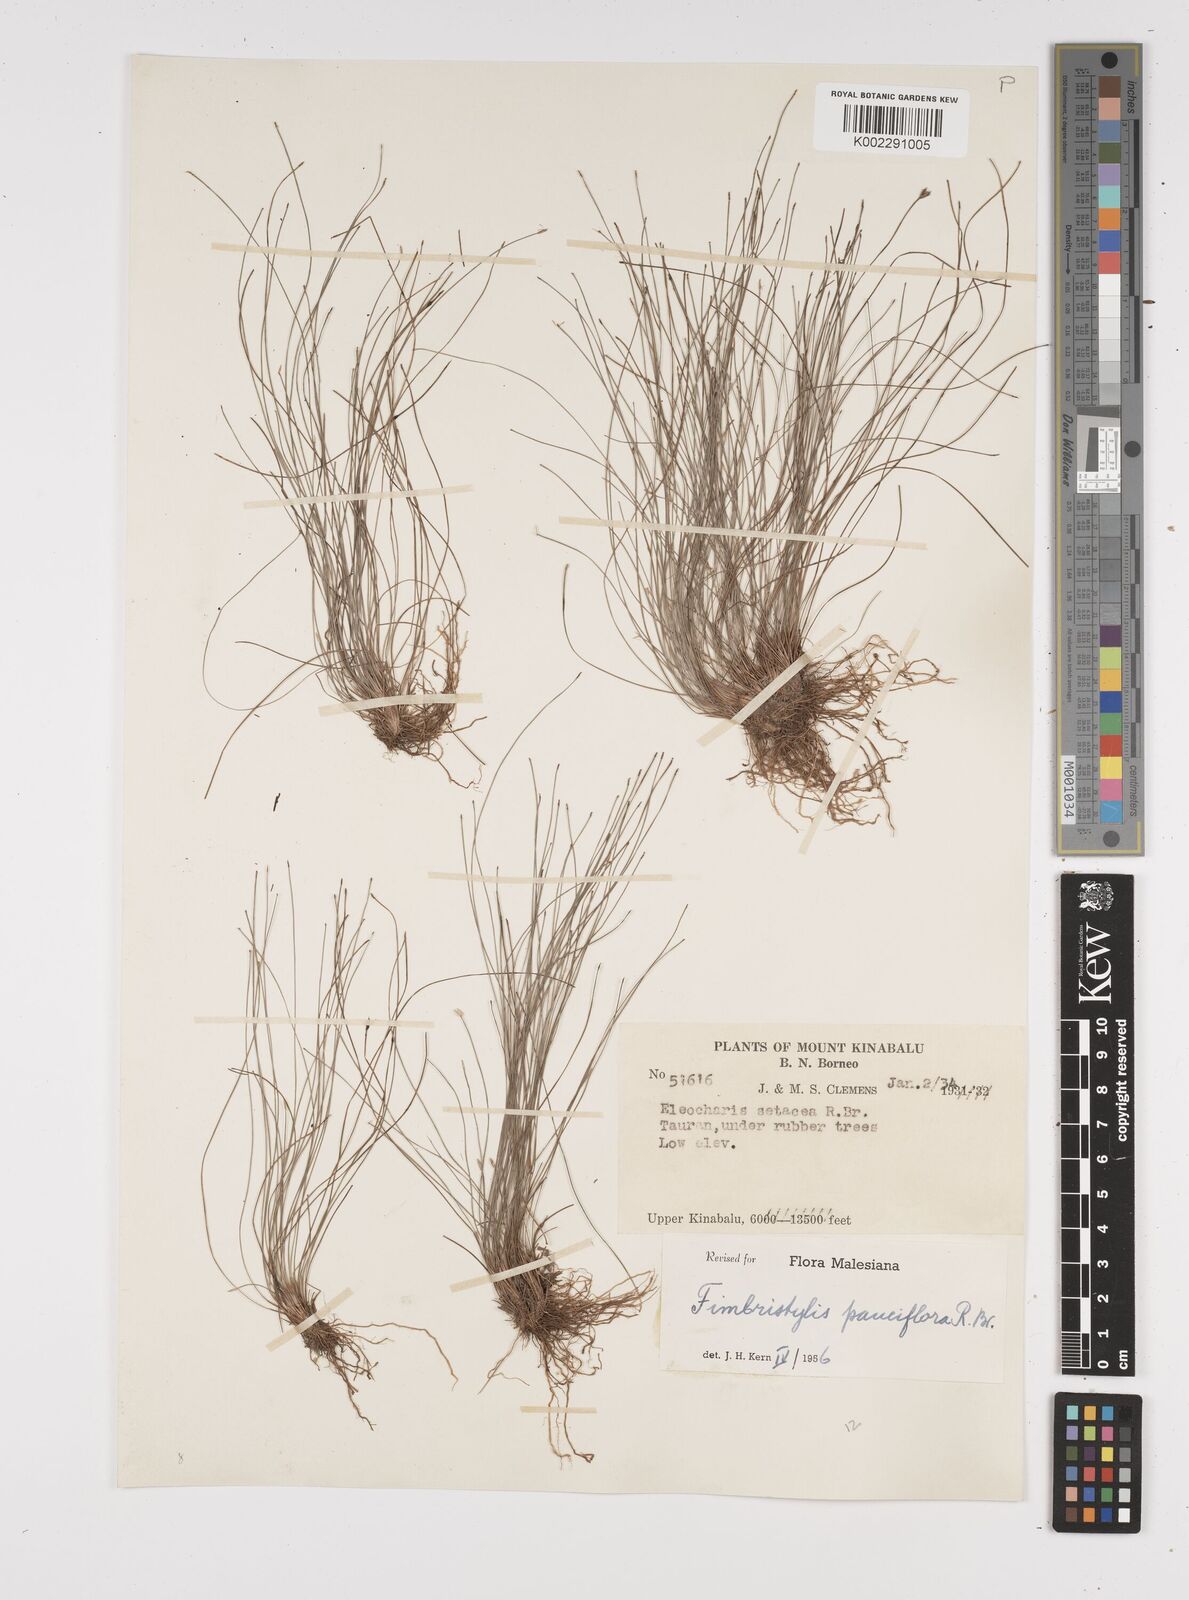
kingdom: Plantae
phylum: Tracheophyta
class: Liliopsida
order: Poales
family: Cyperaceae
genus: Fimbristylis
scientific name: Fimbristylis pauciflora
